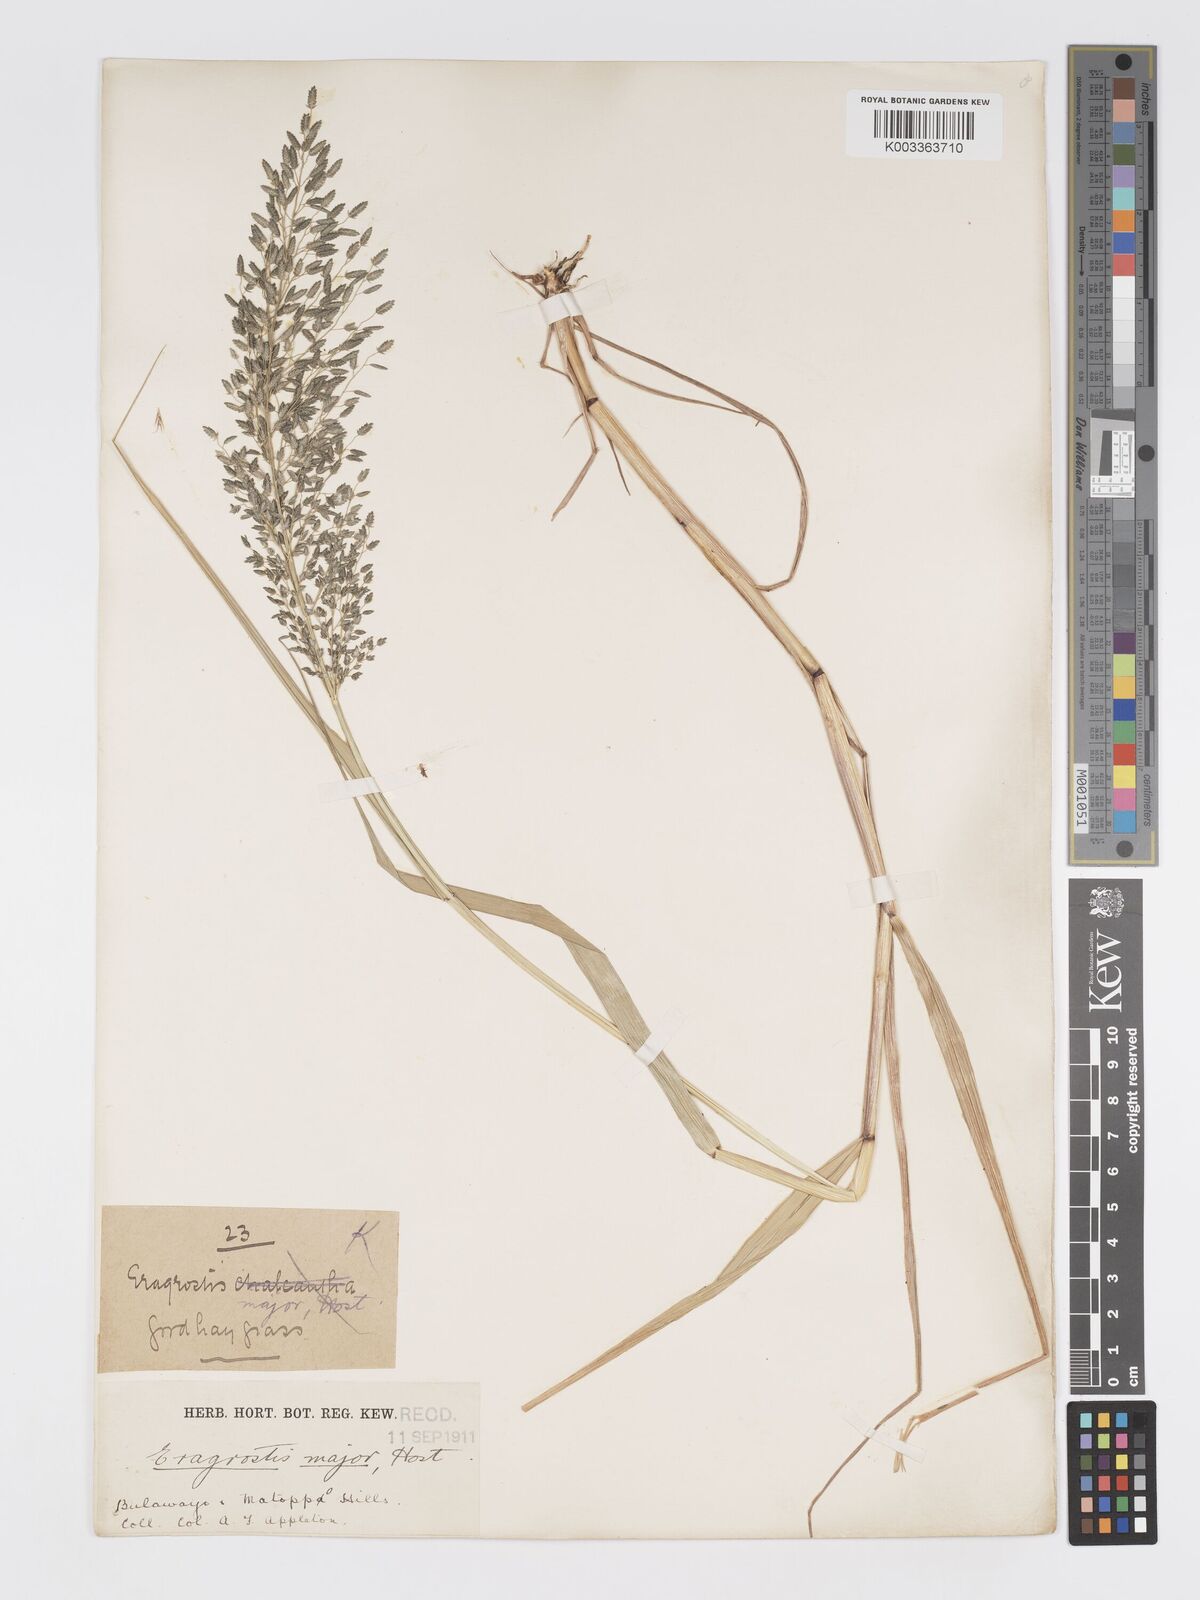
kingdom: Plantae
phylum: Tracheophyta
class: Liliopsida
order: Poales
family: Poaceae
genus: Eragrostis
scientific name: Eragrostis cilianensis
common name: Stinkgrass
